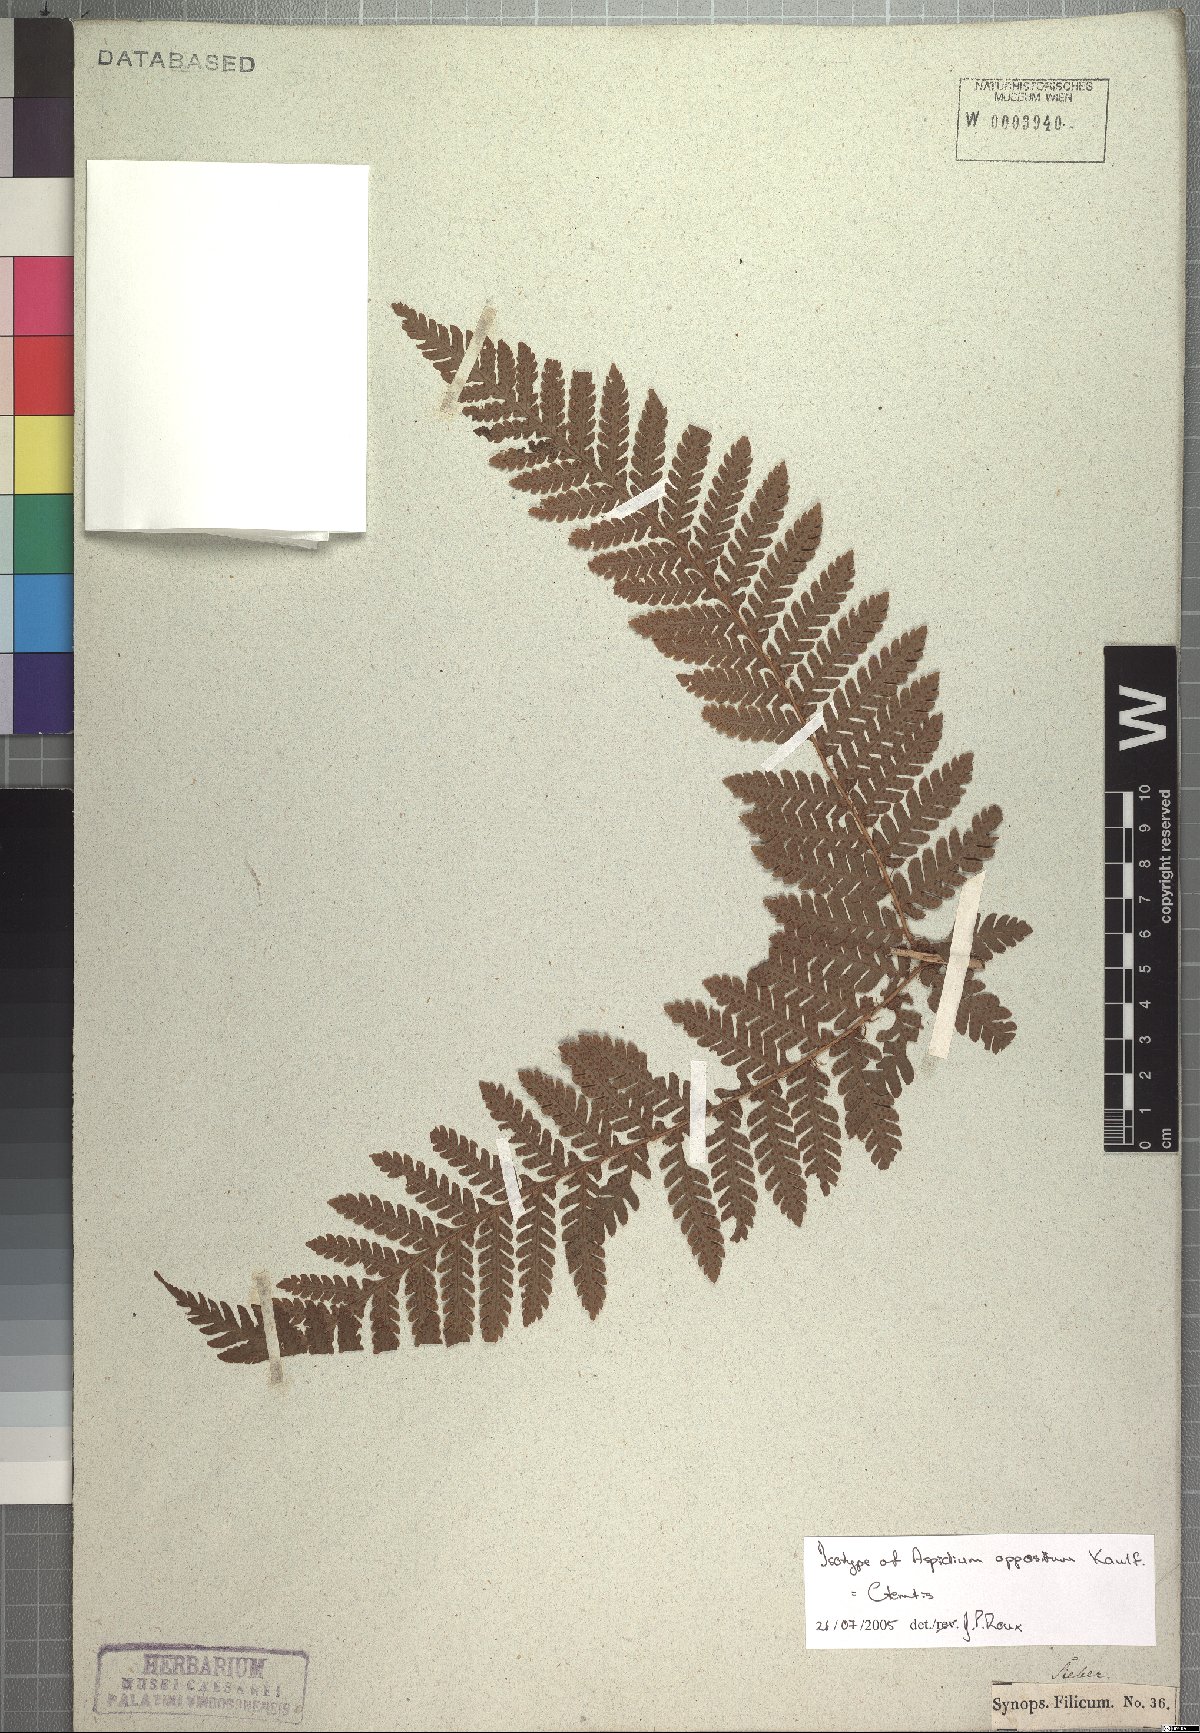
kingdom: Plantae
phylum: Tracheophyta
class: Polypodiopsida
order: Polypodiales
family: Dryopteridaceae
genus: Ctenitis
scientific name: Ctenitis
